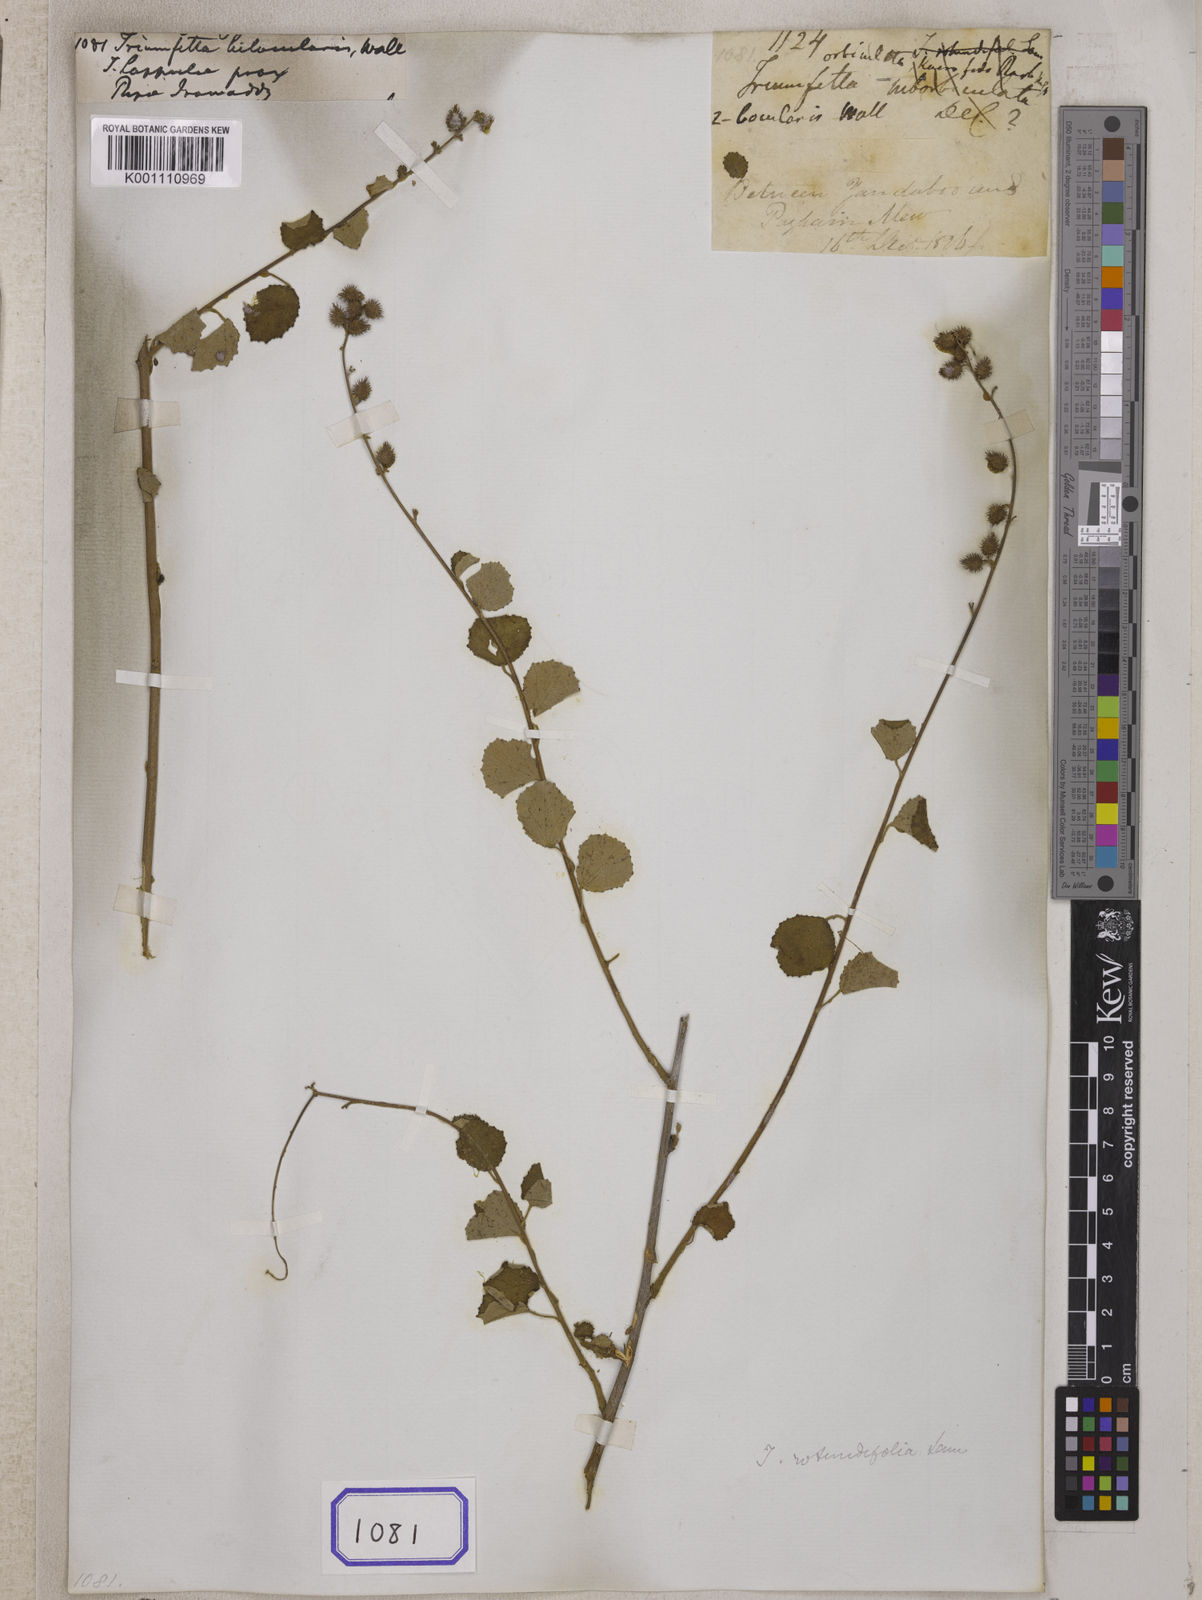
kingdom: Plantae
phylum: Tracheophyta
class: Magnoliopsida
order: Malvales
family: Malvaceae
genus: Triumfetta
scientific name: Triumfetta rotundifolia
